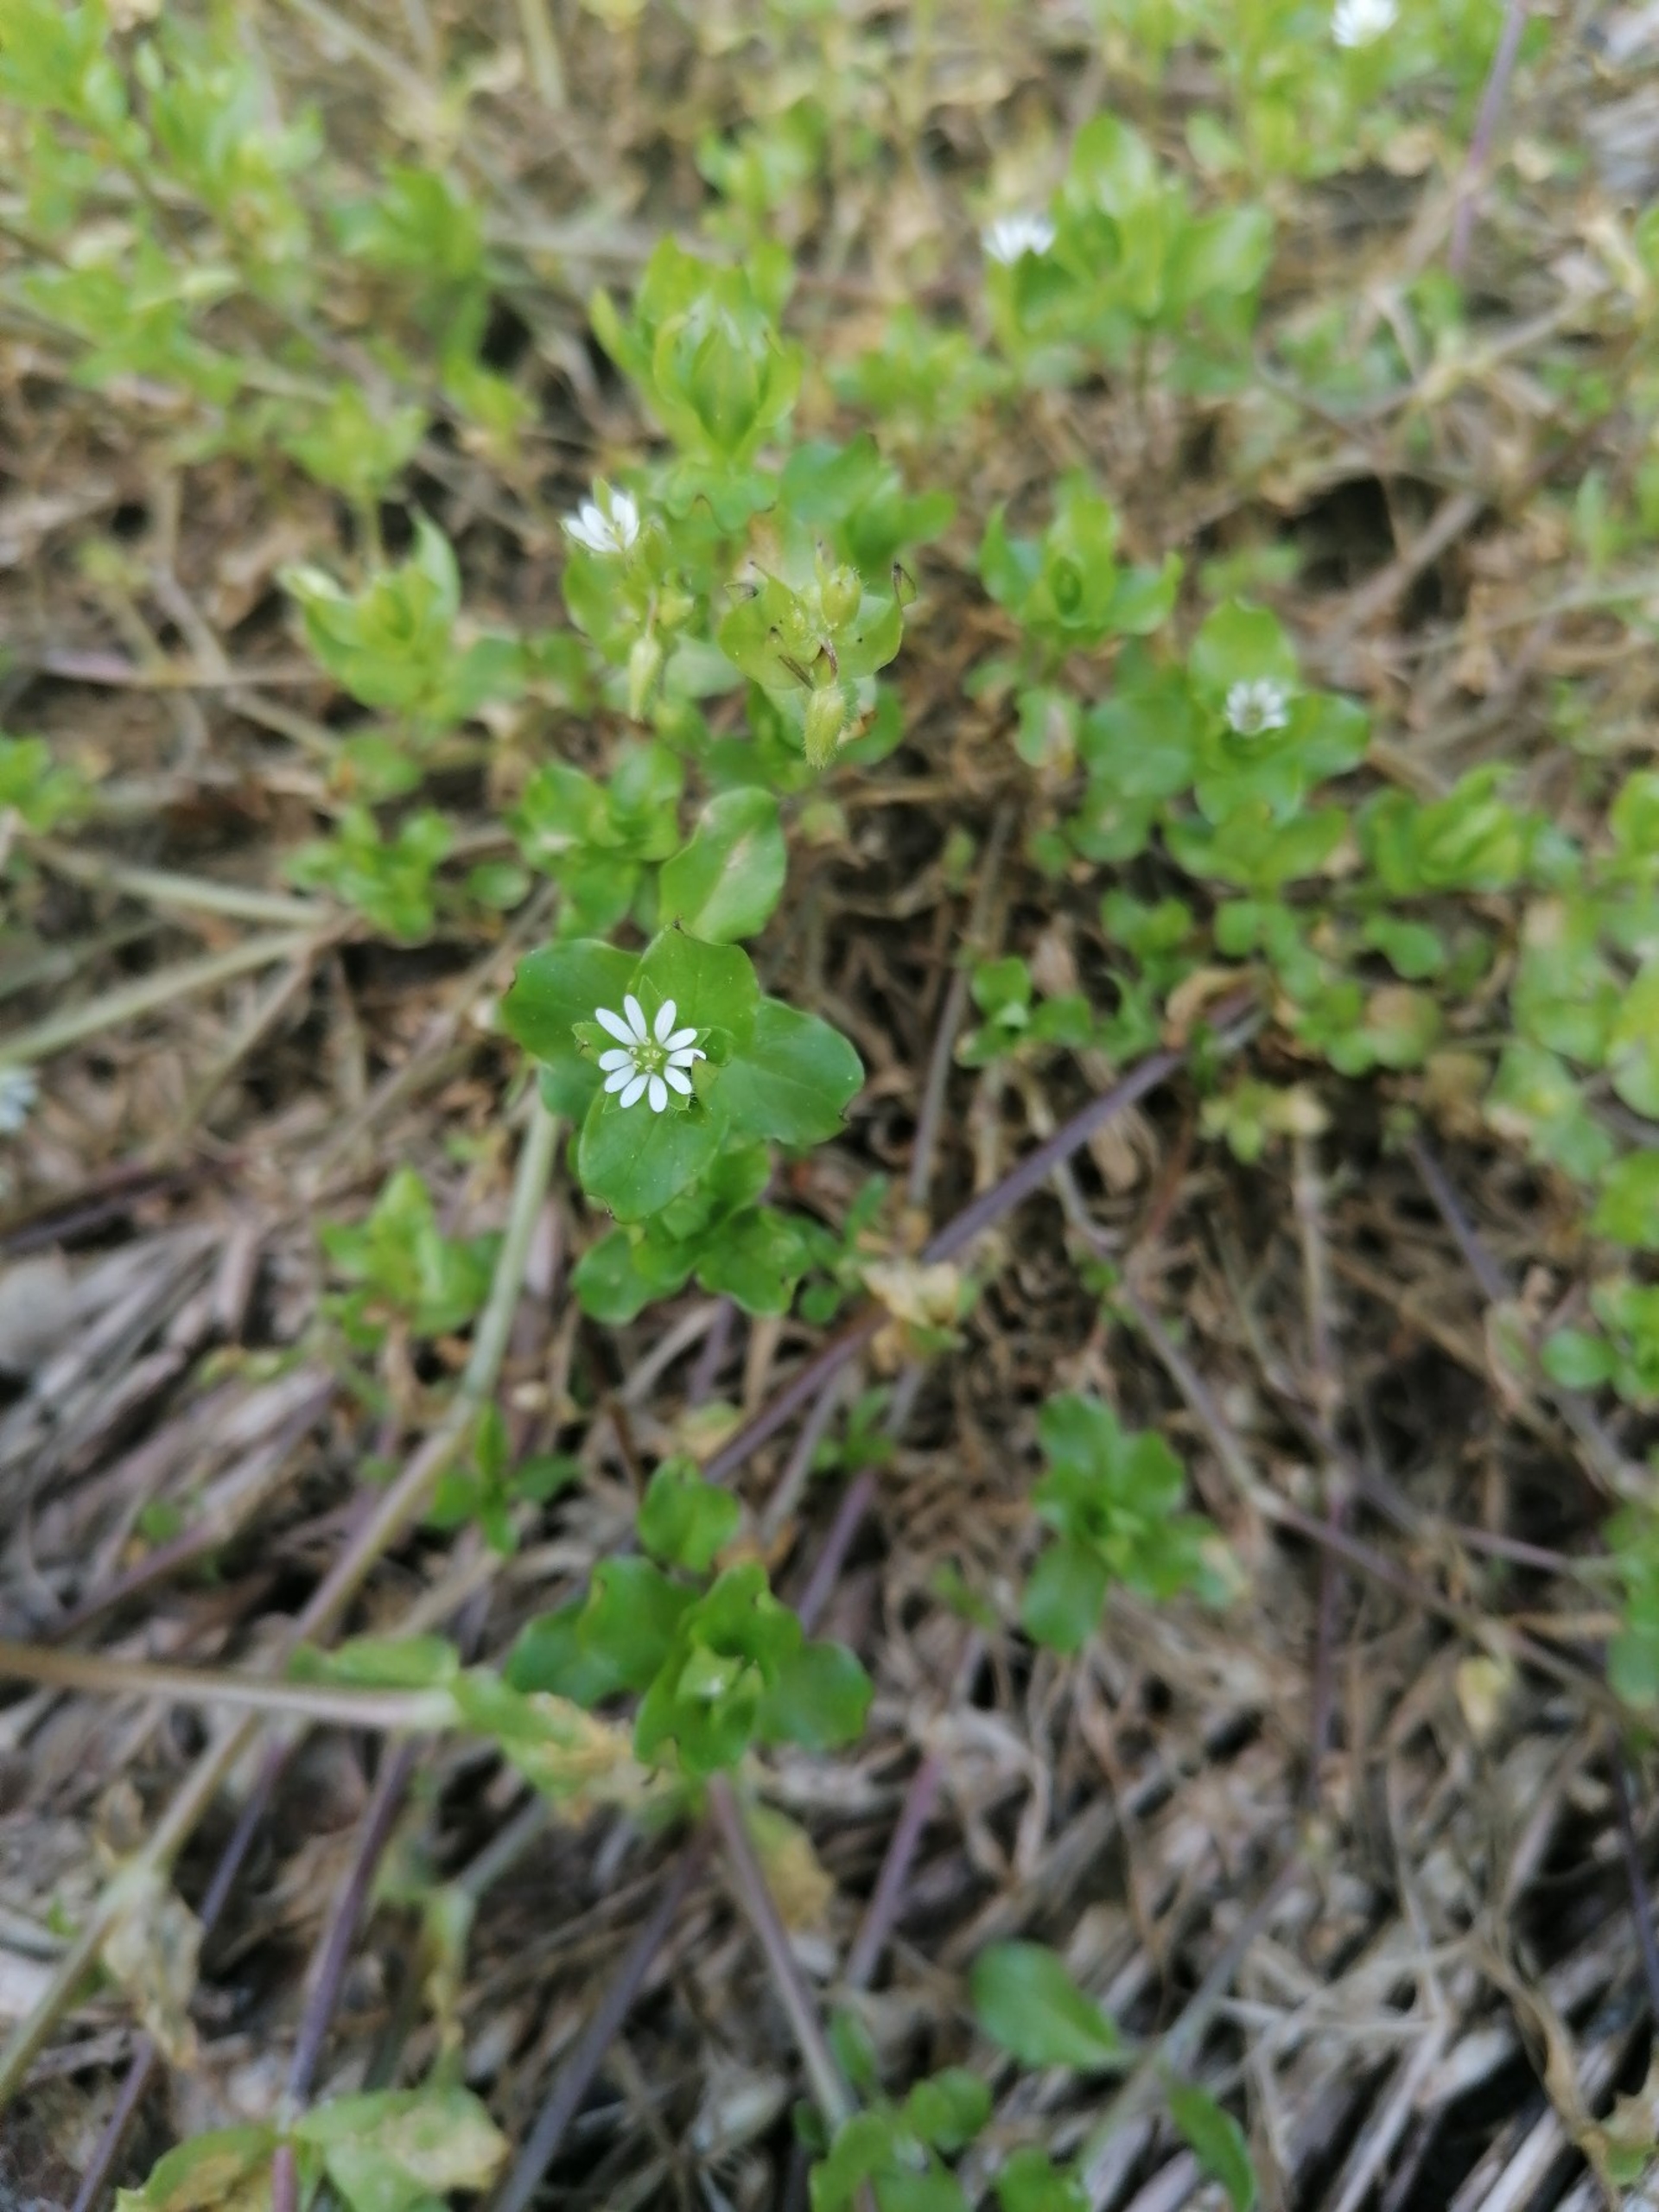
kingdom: Plantae
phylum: Tracheophyta
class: Magnoliopsida
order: Caryophyllales
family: Caryophyllaceae
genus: Stellaria
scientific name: Stellaria media
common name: Almindelig fuglegræs
